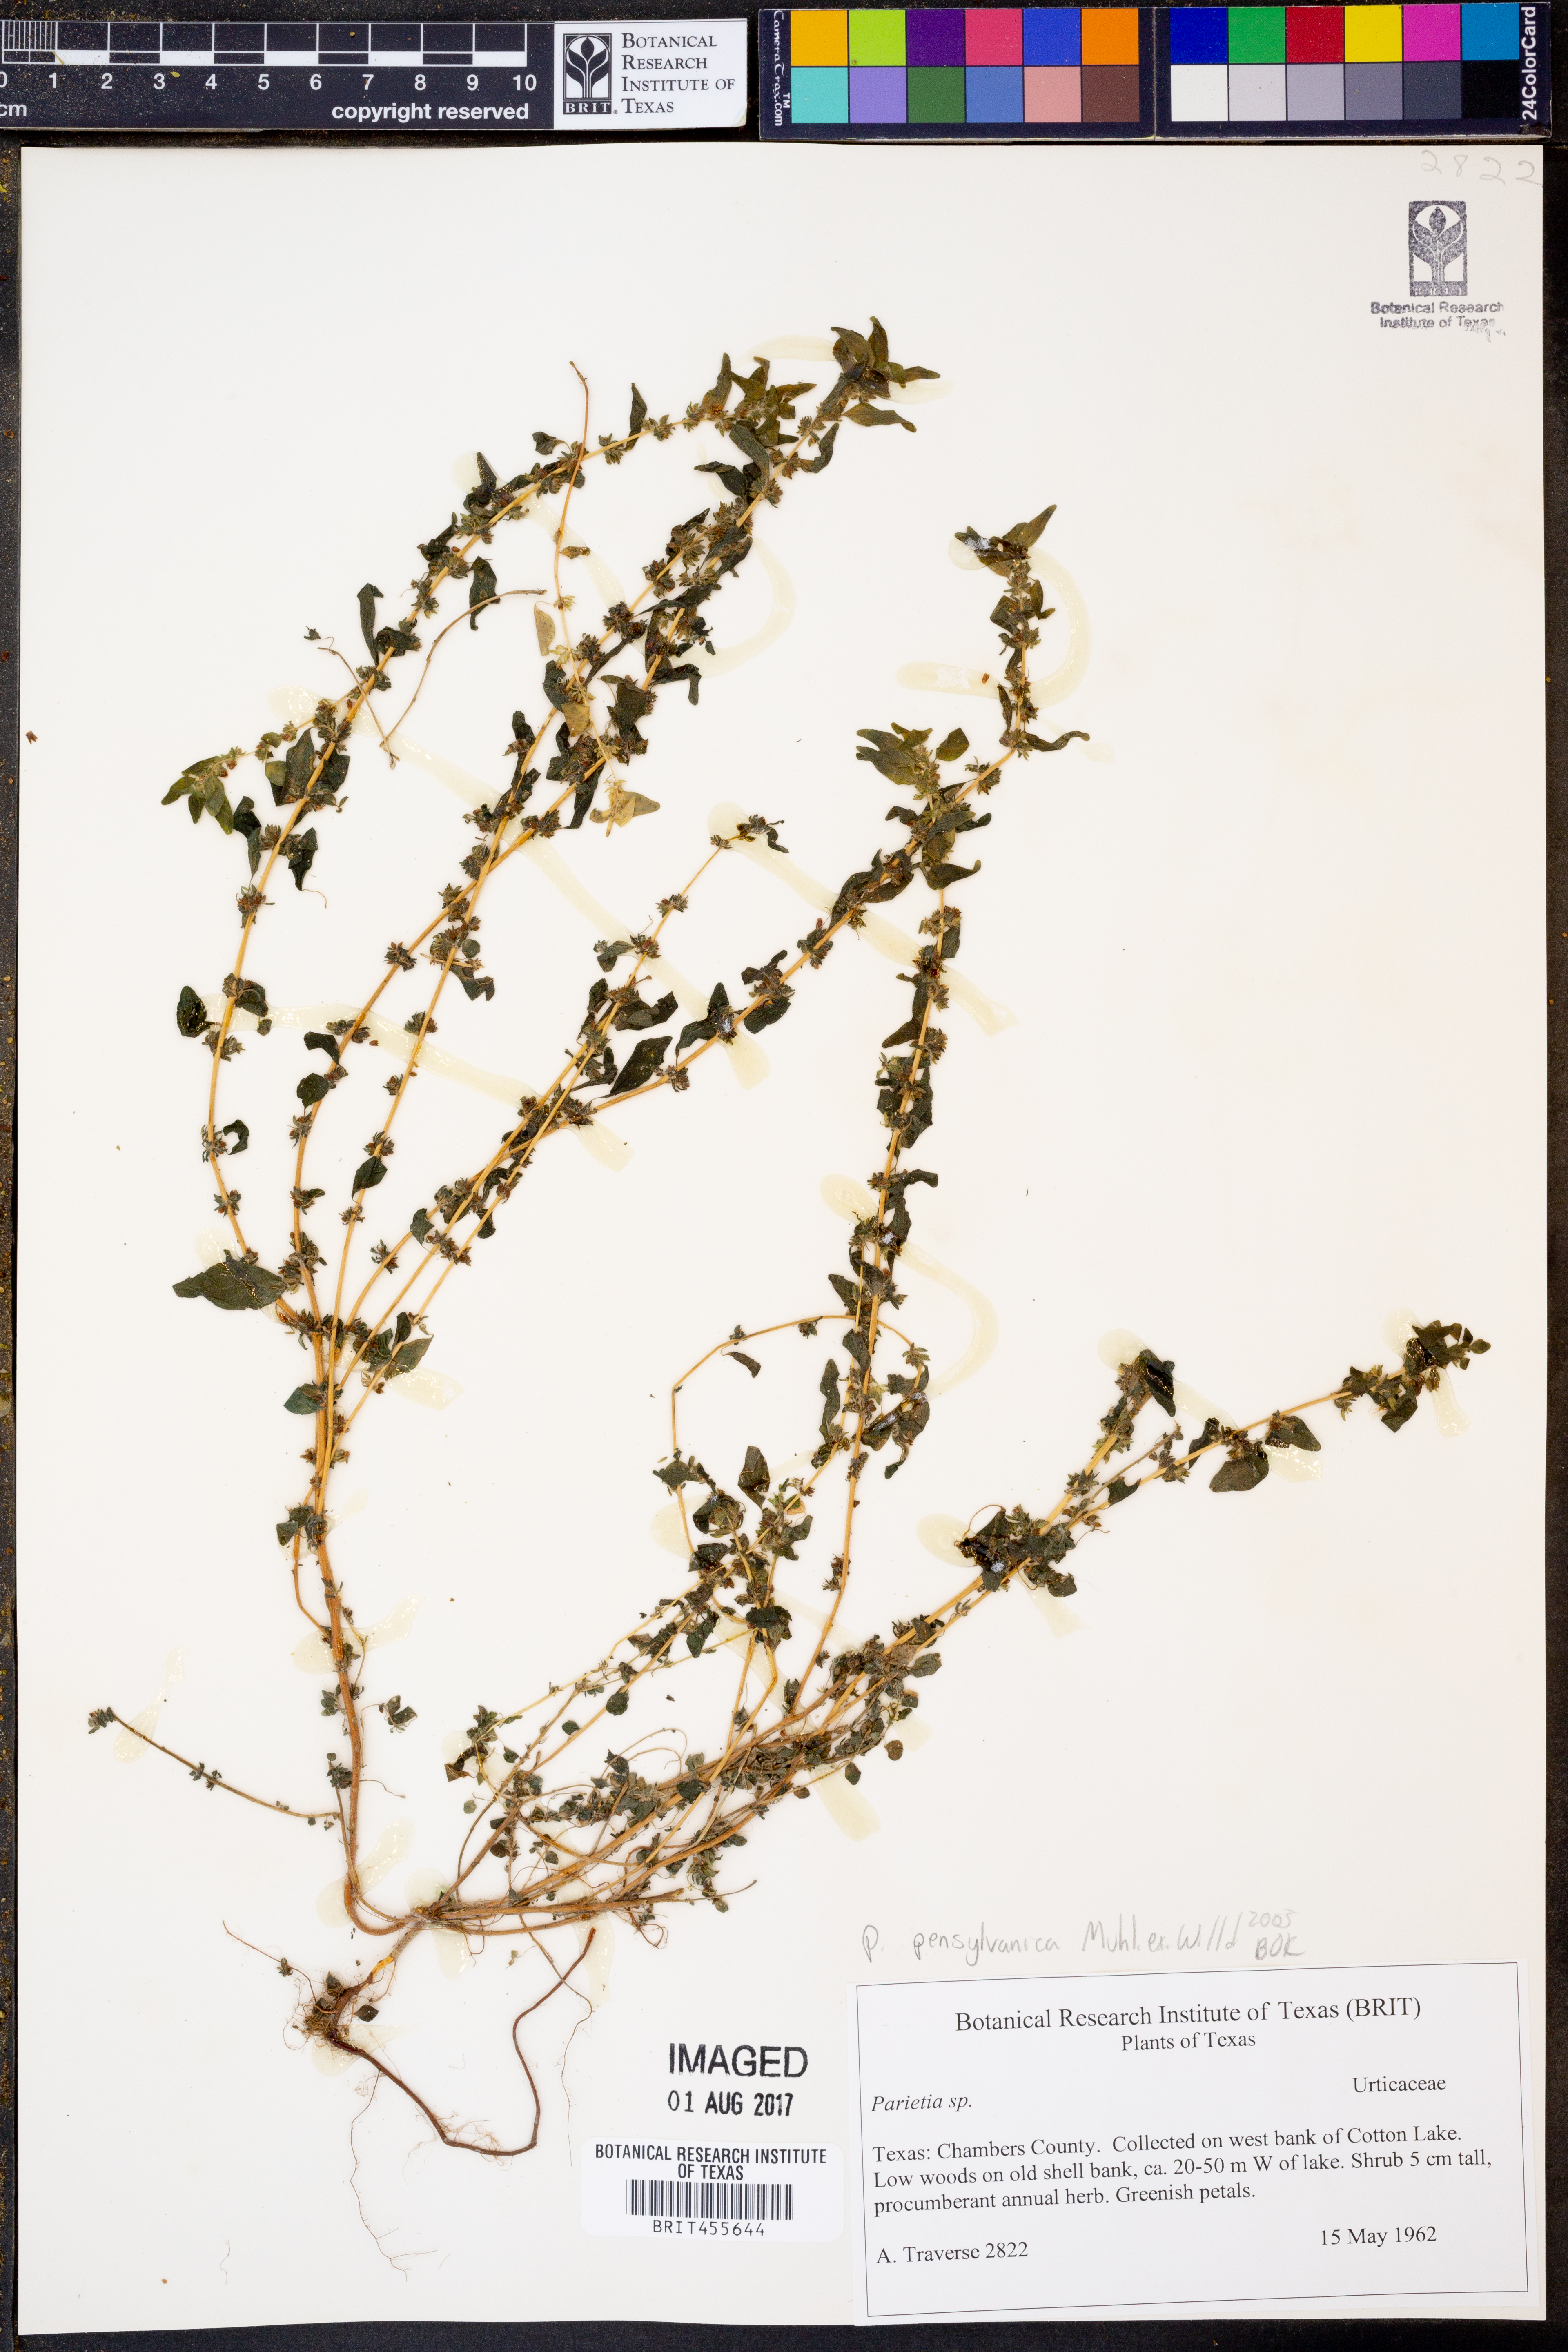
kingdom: Plantae
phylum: Tracheophyta
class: Magnoliopsida
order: Rosales
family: Urticaceae
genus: Parietaria
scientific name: Parietaria pensylvanica
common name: Pennsylvania pellitory
